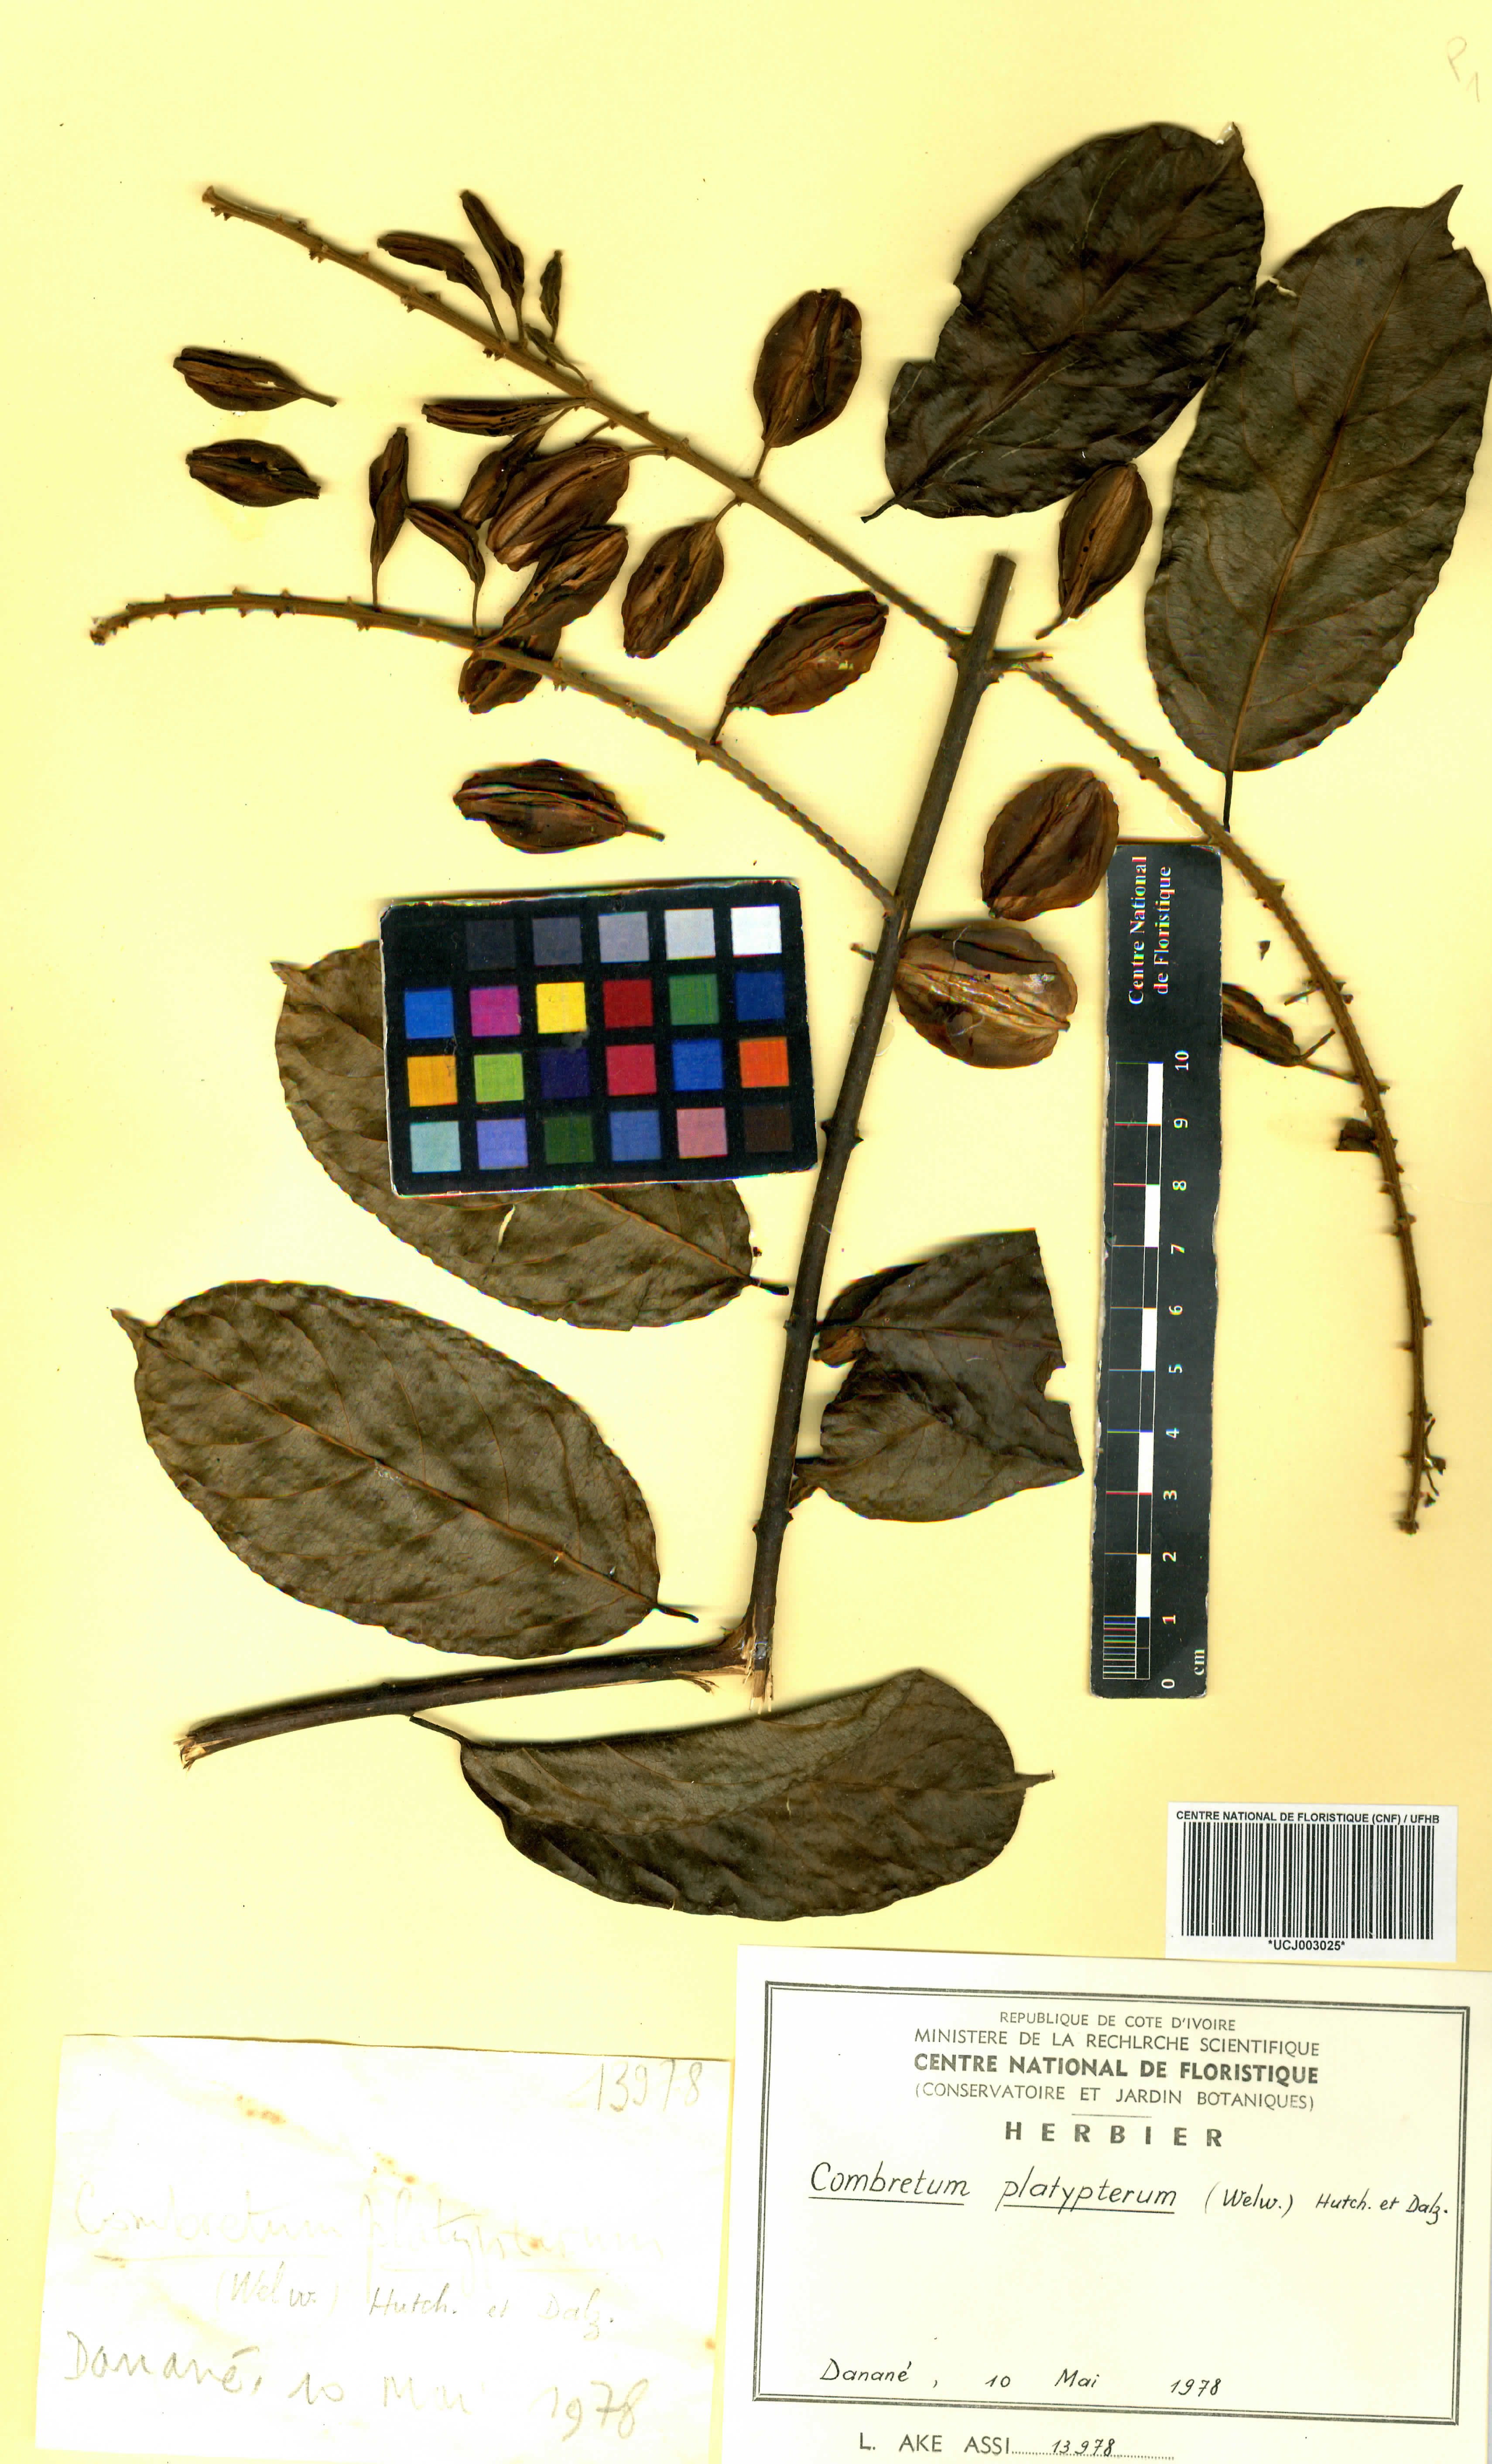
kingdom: Plantae
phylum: Tracheophyta
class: Magnoliopsida
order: Myrtales
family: Combretaceae
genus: Combretum
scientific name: Combretum platypterum
